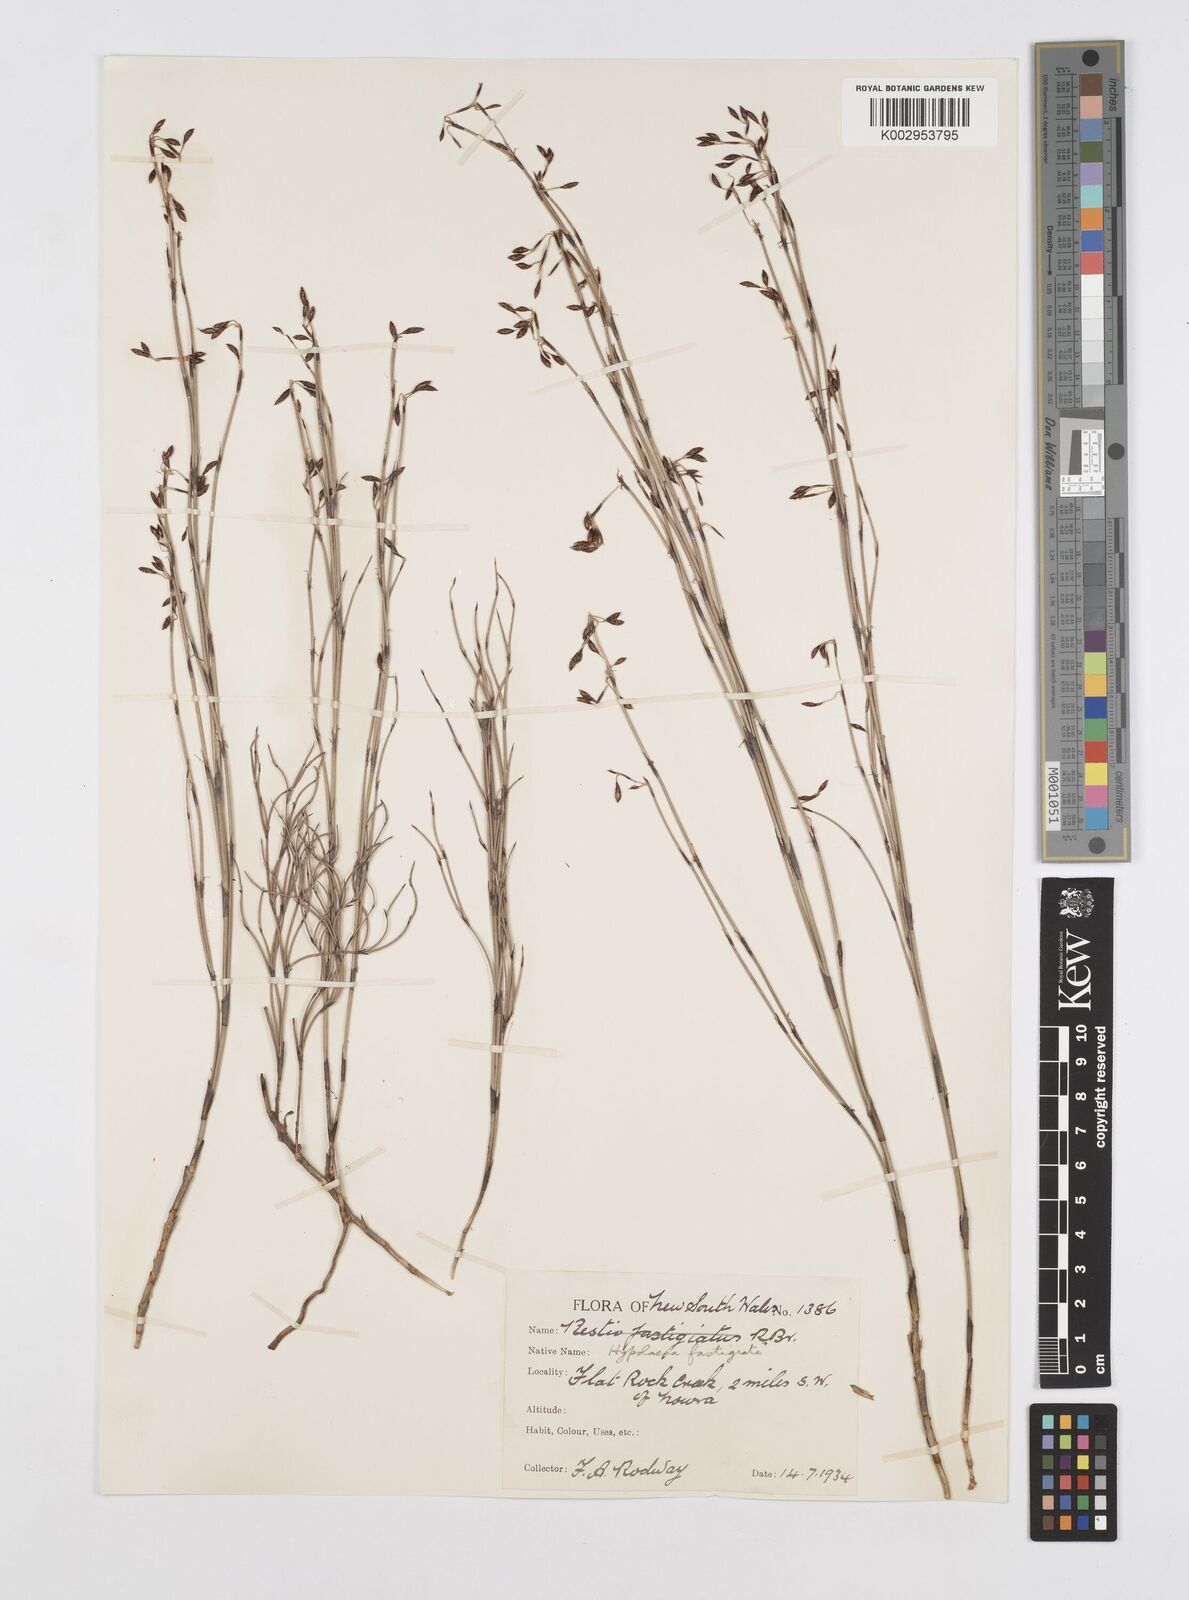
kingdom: Plantae
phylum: Tracheophyta
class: Liliopsida
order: Poales
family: Restionaceae
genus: Hypolaena
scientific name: Hypolaena fastigiata
